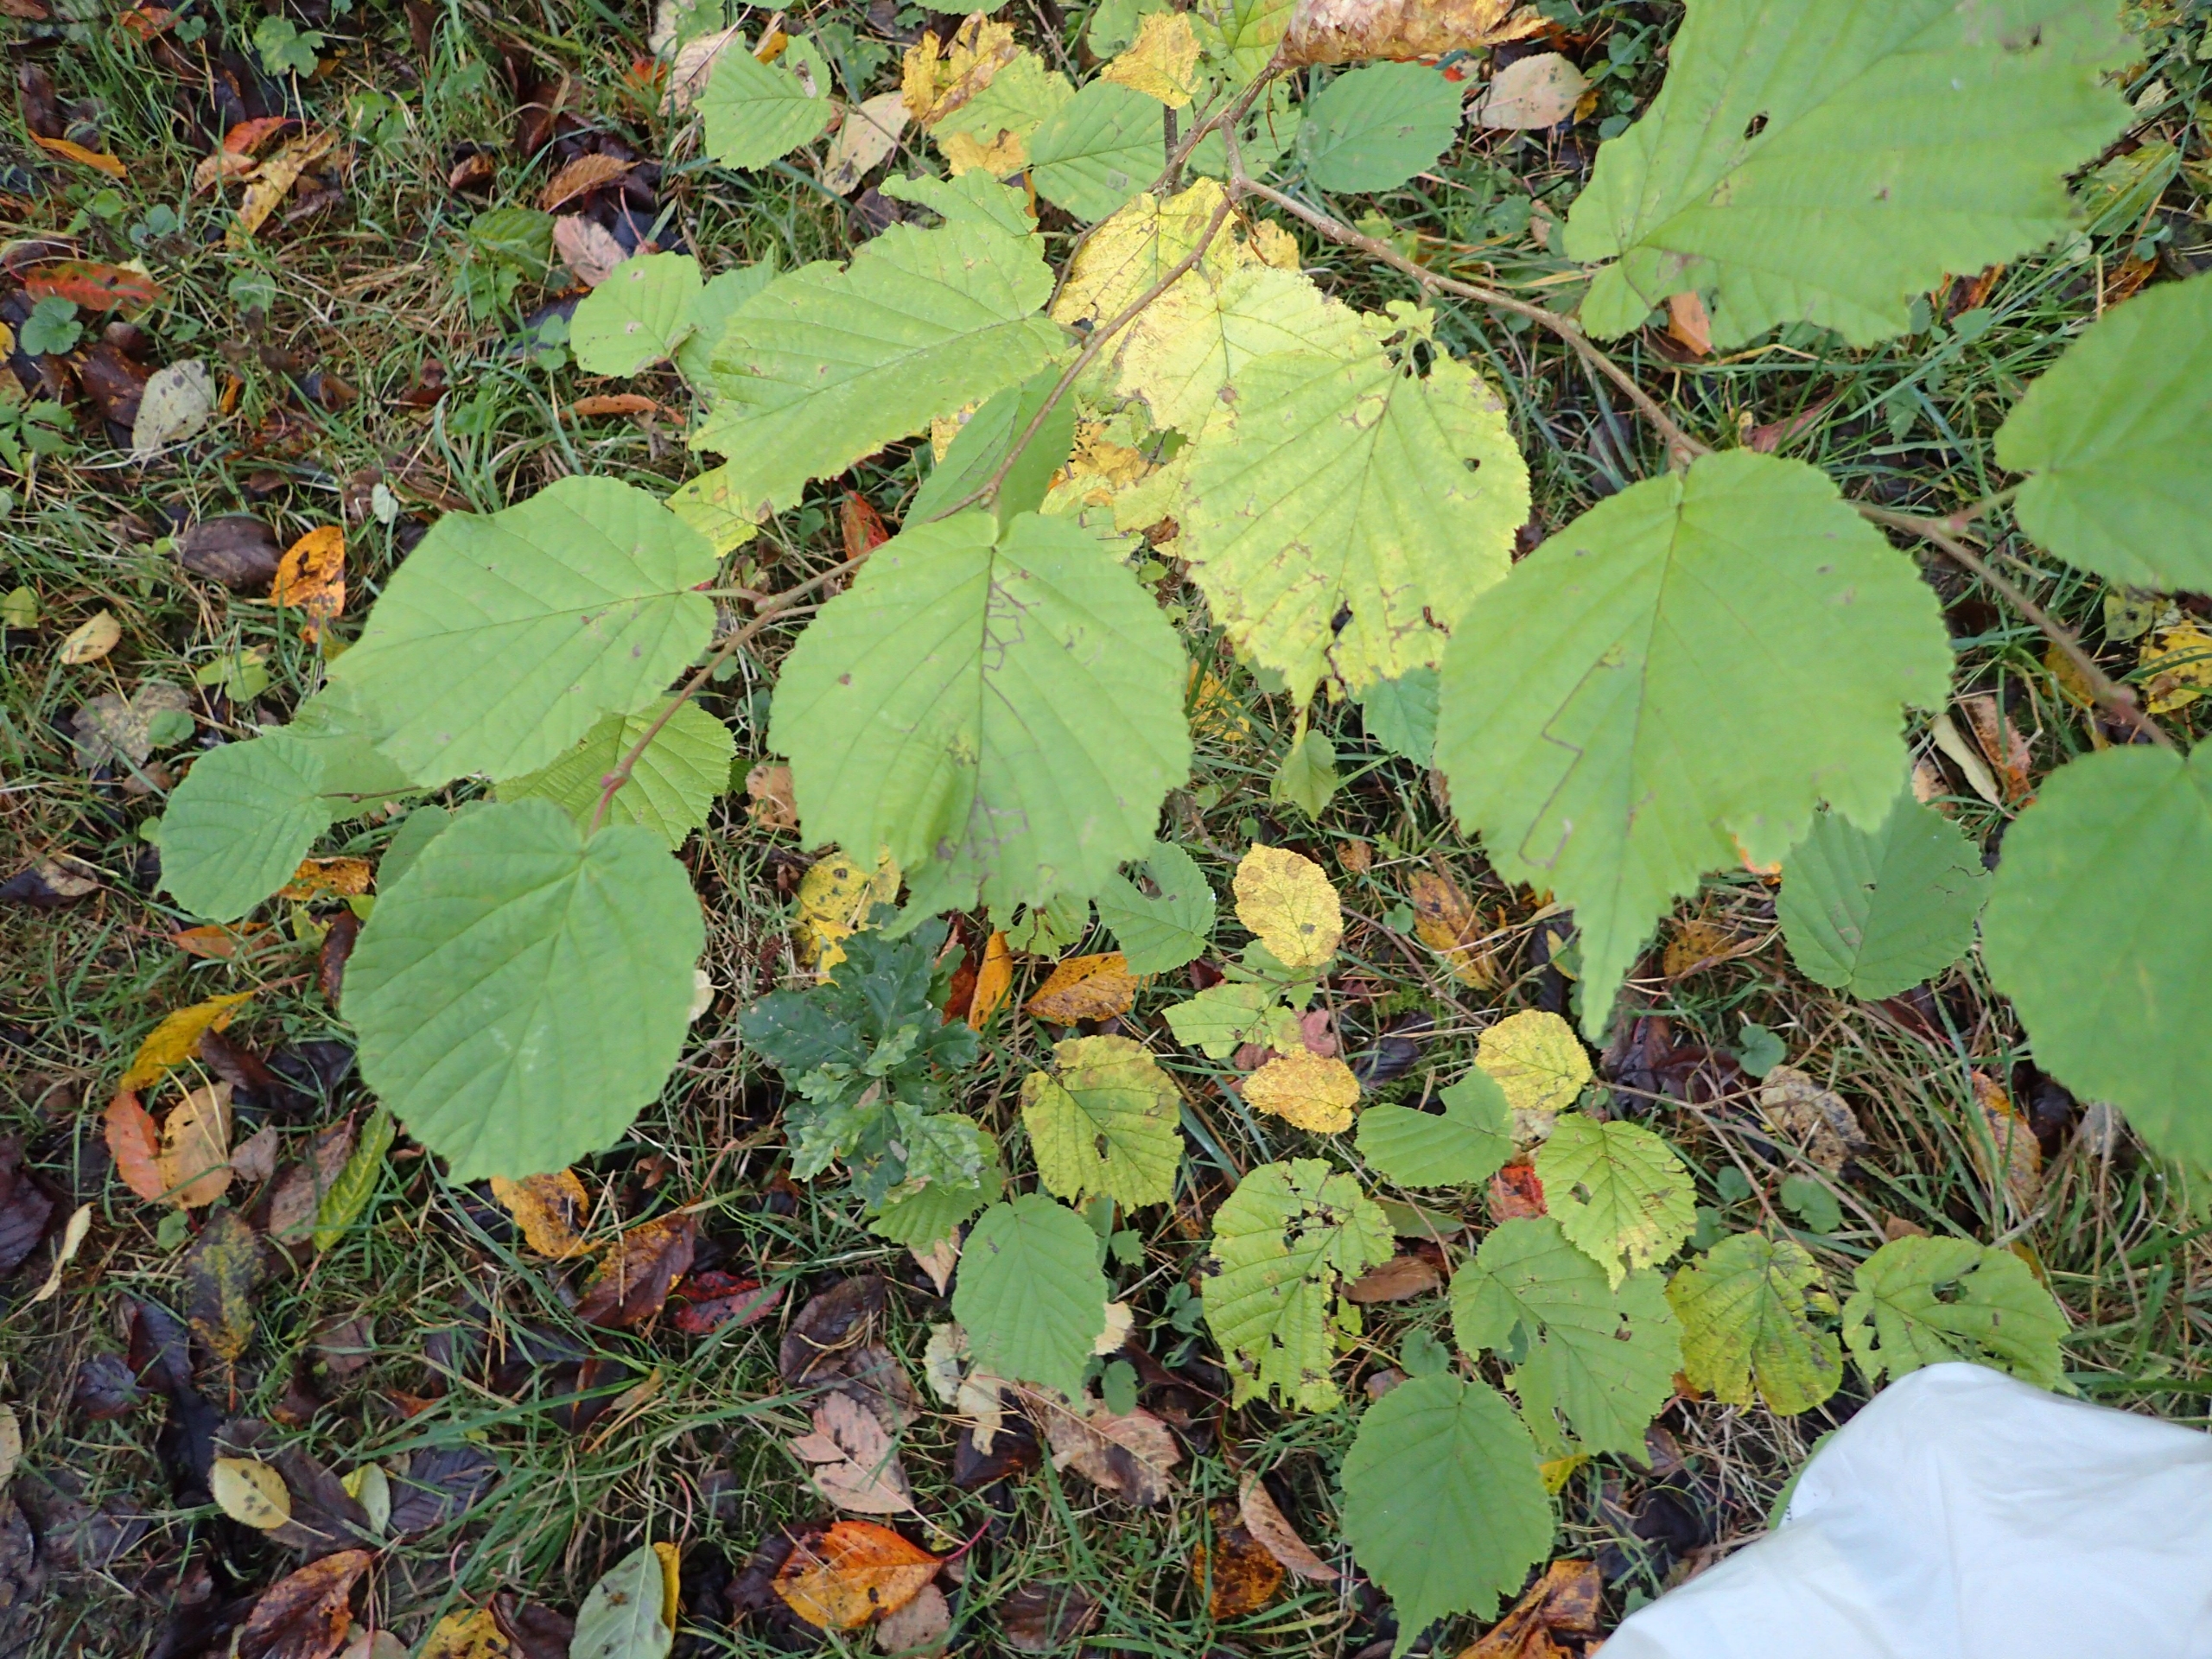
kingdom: Plantae
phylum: Tracheophyta
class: Magnoliopsida
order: Fagales
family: Betulaceae
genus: Corylus
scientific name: Corylus avellana
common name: Hassel
